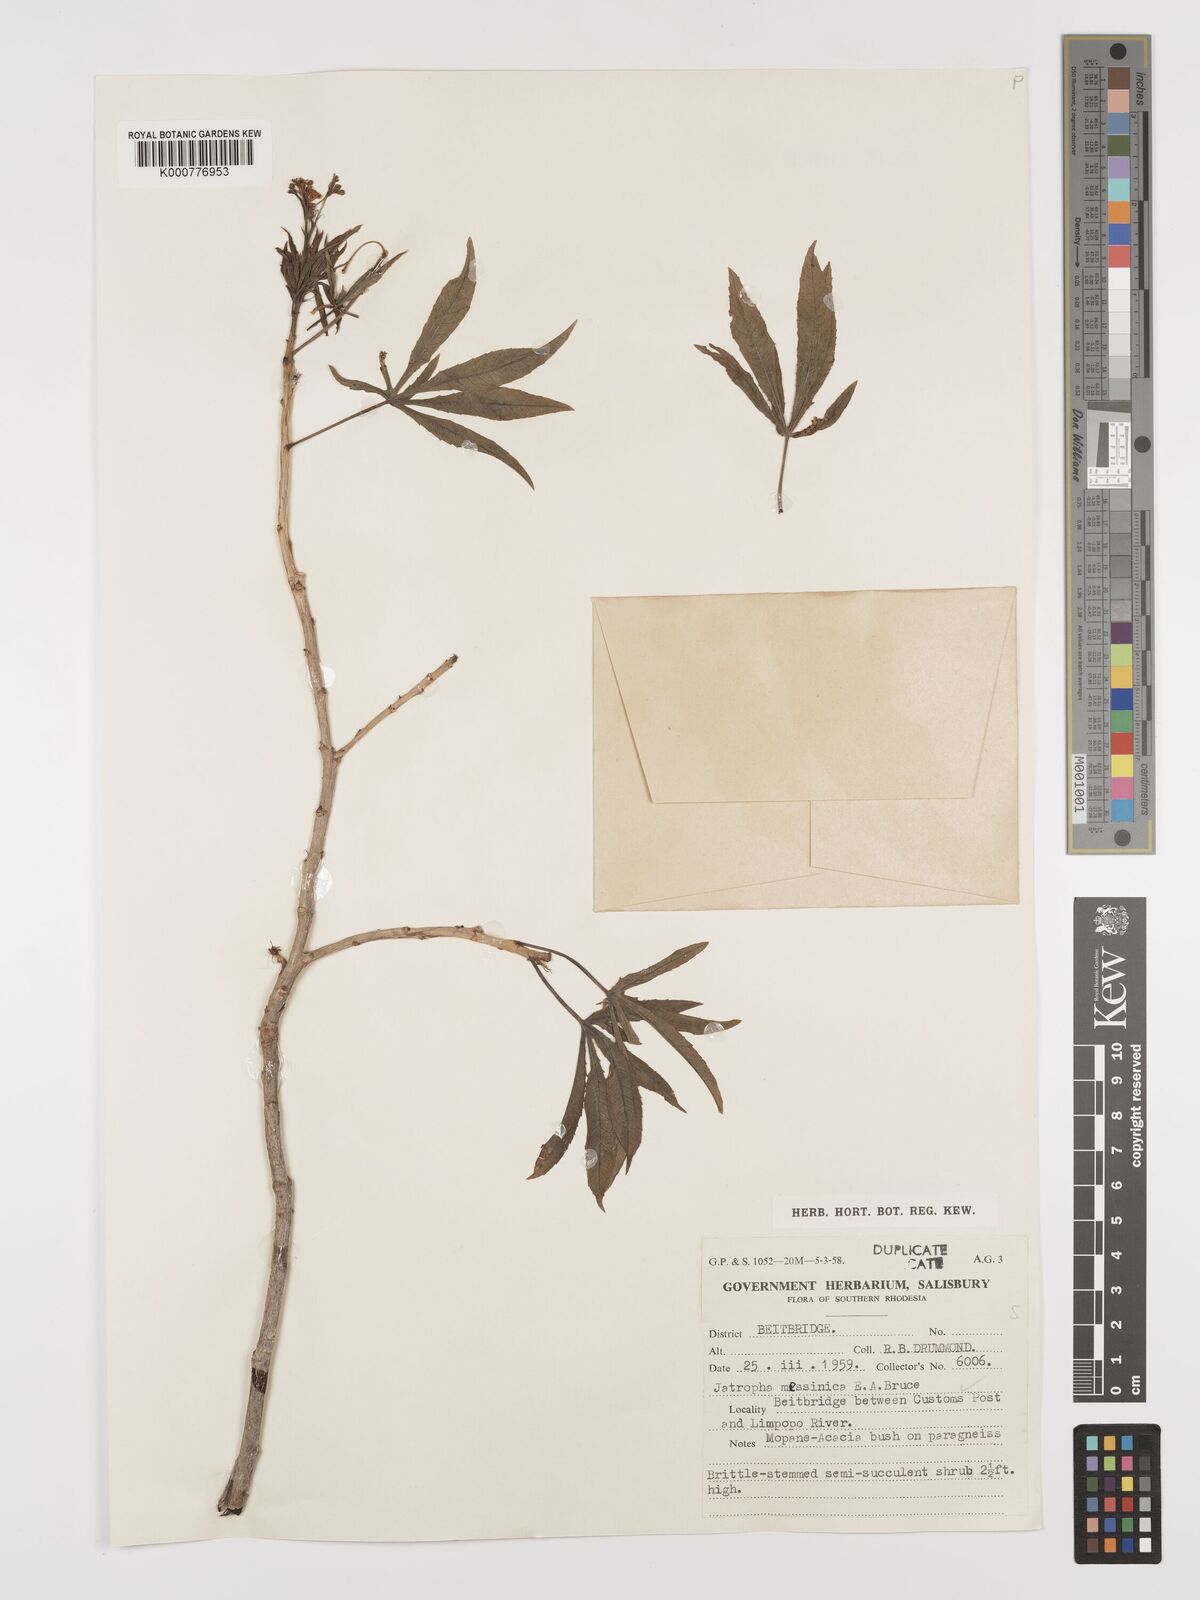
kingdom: Plantae
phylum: Tracheophyta
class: Magnoliopsida
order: Malpighiales
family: Euphorbiaceae
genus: Jatropha
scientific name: Jatropha spicata
